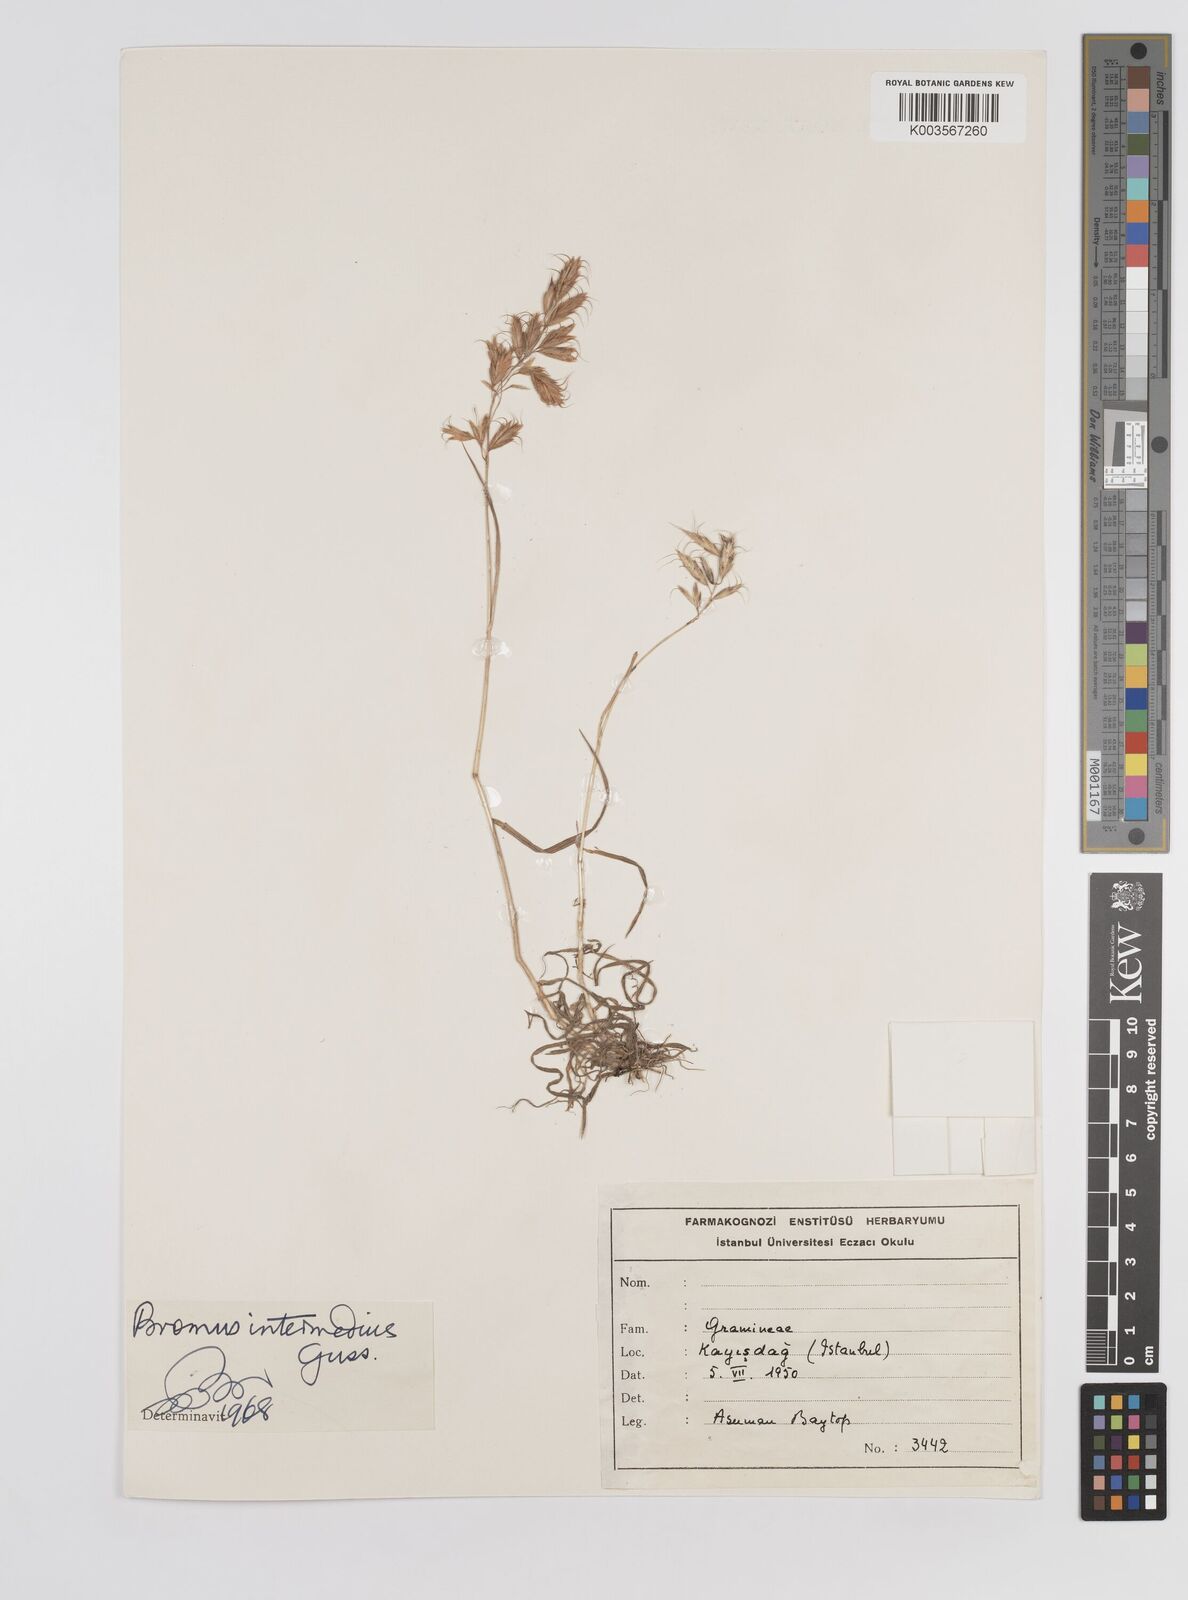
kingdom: Plantae
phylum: Tracheophyta
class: Liliopsida
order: Poales
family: Poaceae
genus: Bromus
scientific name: Bromus intermedius
